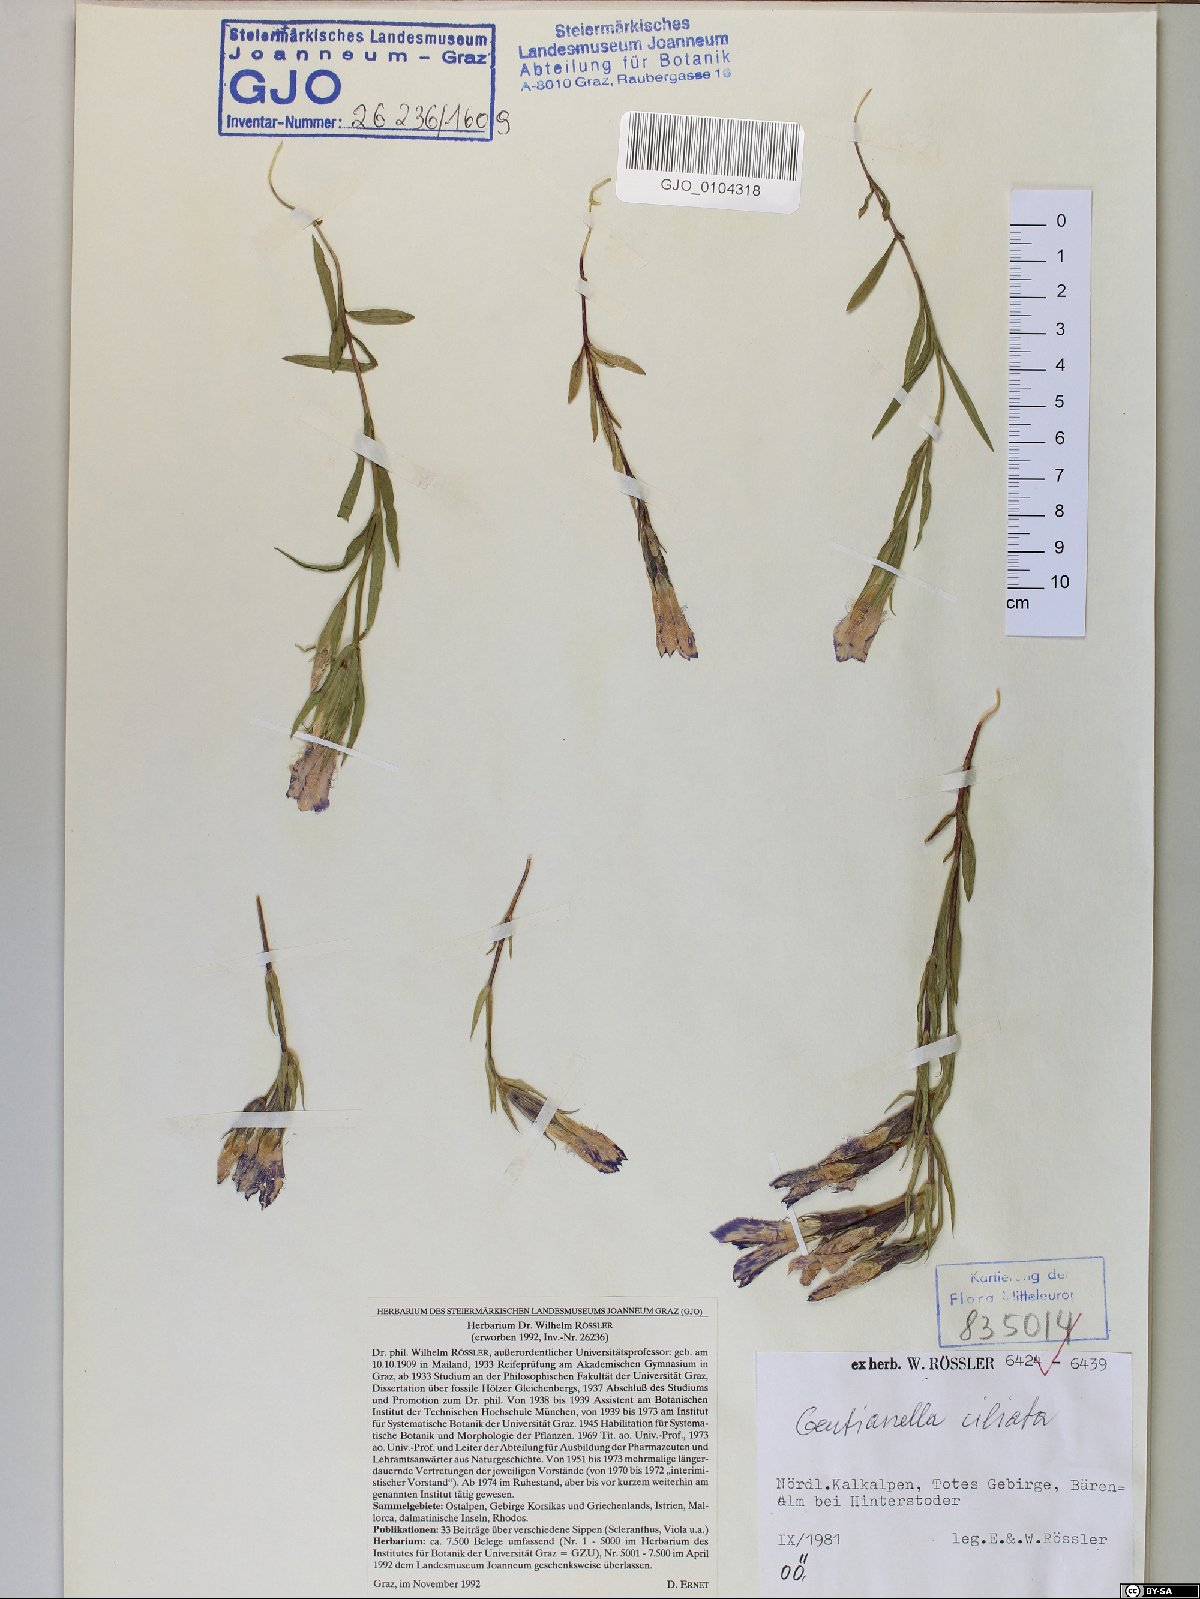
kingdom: Plantae
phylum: Tracheophyta
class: Magnoliopsida
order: Gentianales
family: Gentianaceae
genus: Gentianopsis
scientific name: Gentianopsis ciliata
